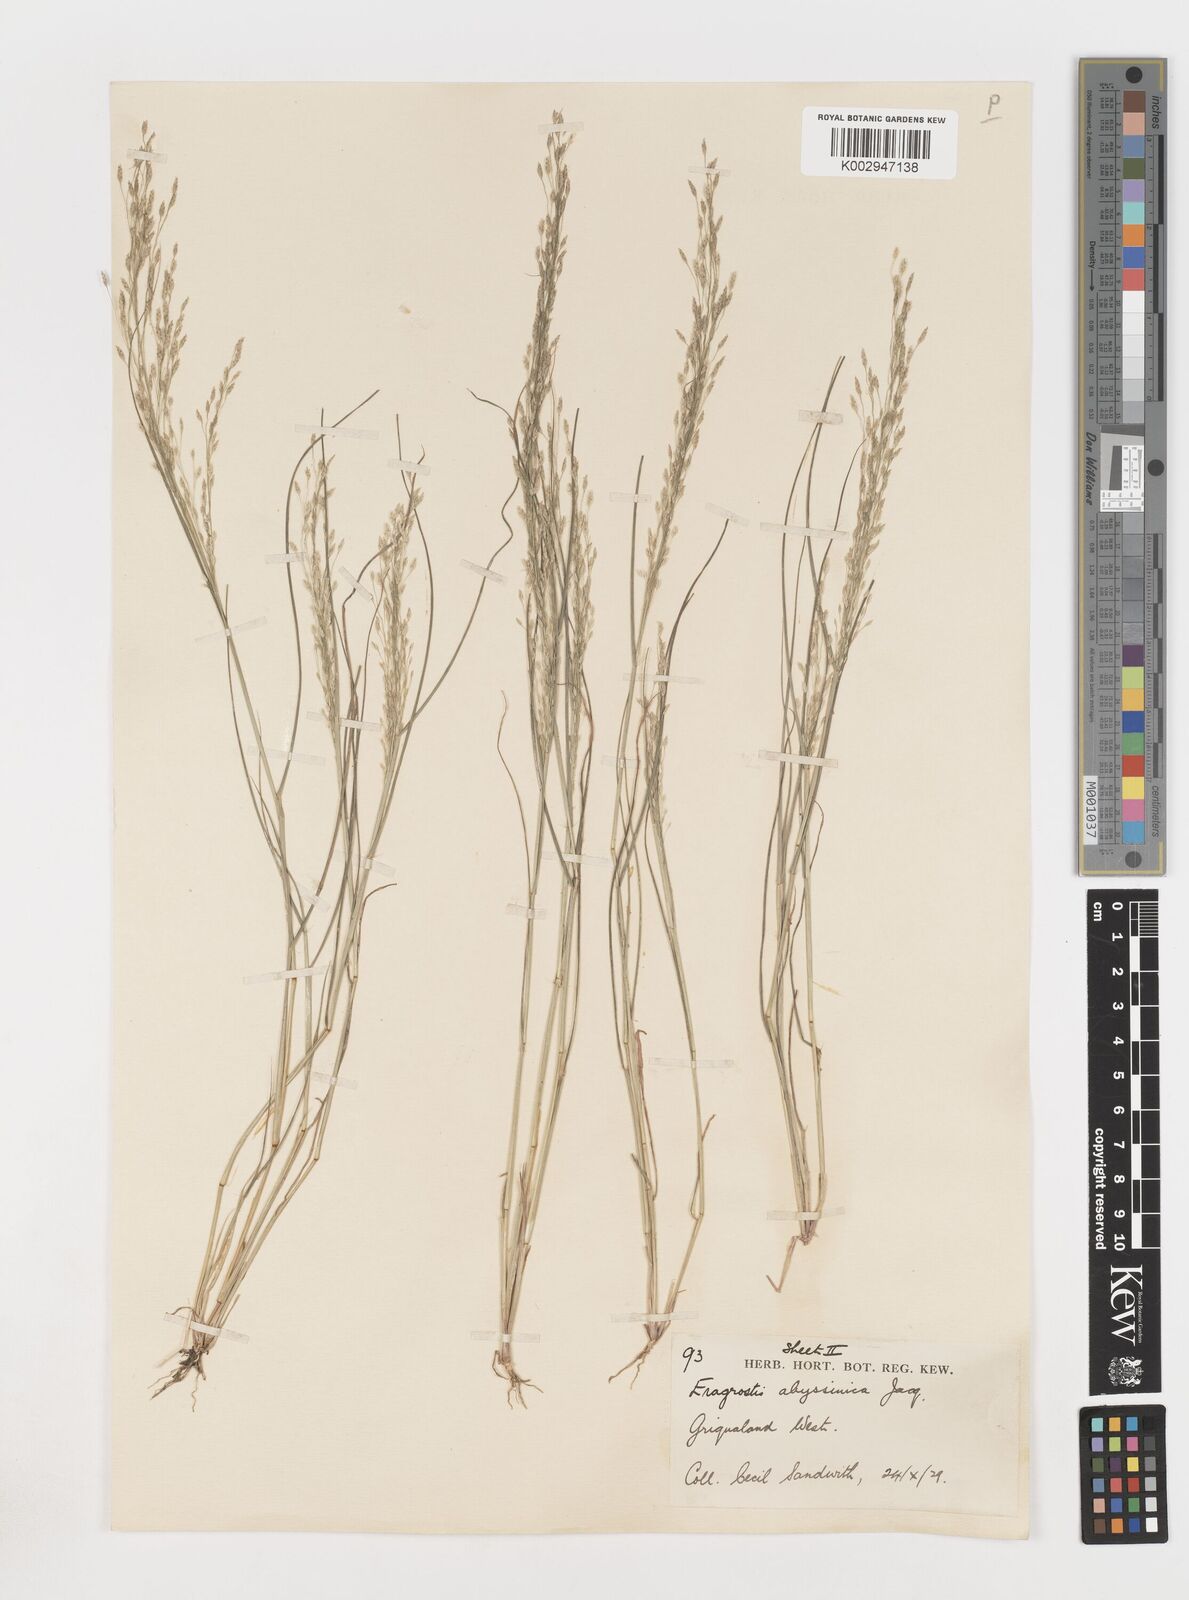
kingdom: Plantae
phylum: Tracheophyta
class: Liliopsida
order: Poales
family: Poaceae
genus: Eragrostis
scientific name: Eragrostis tef
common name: Teff
